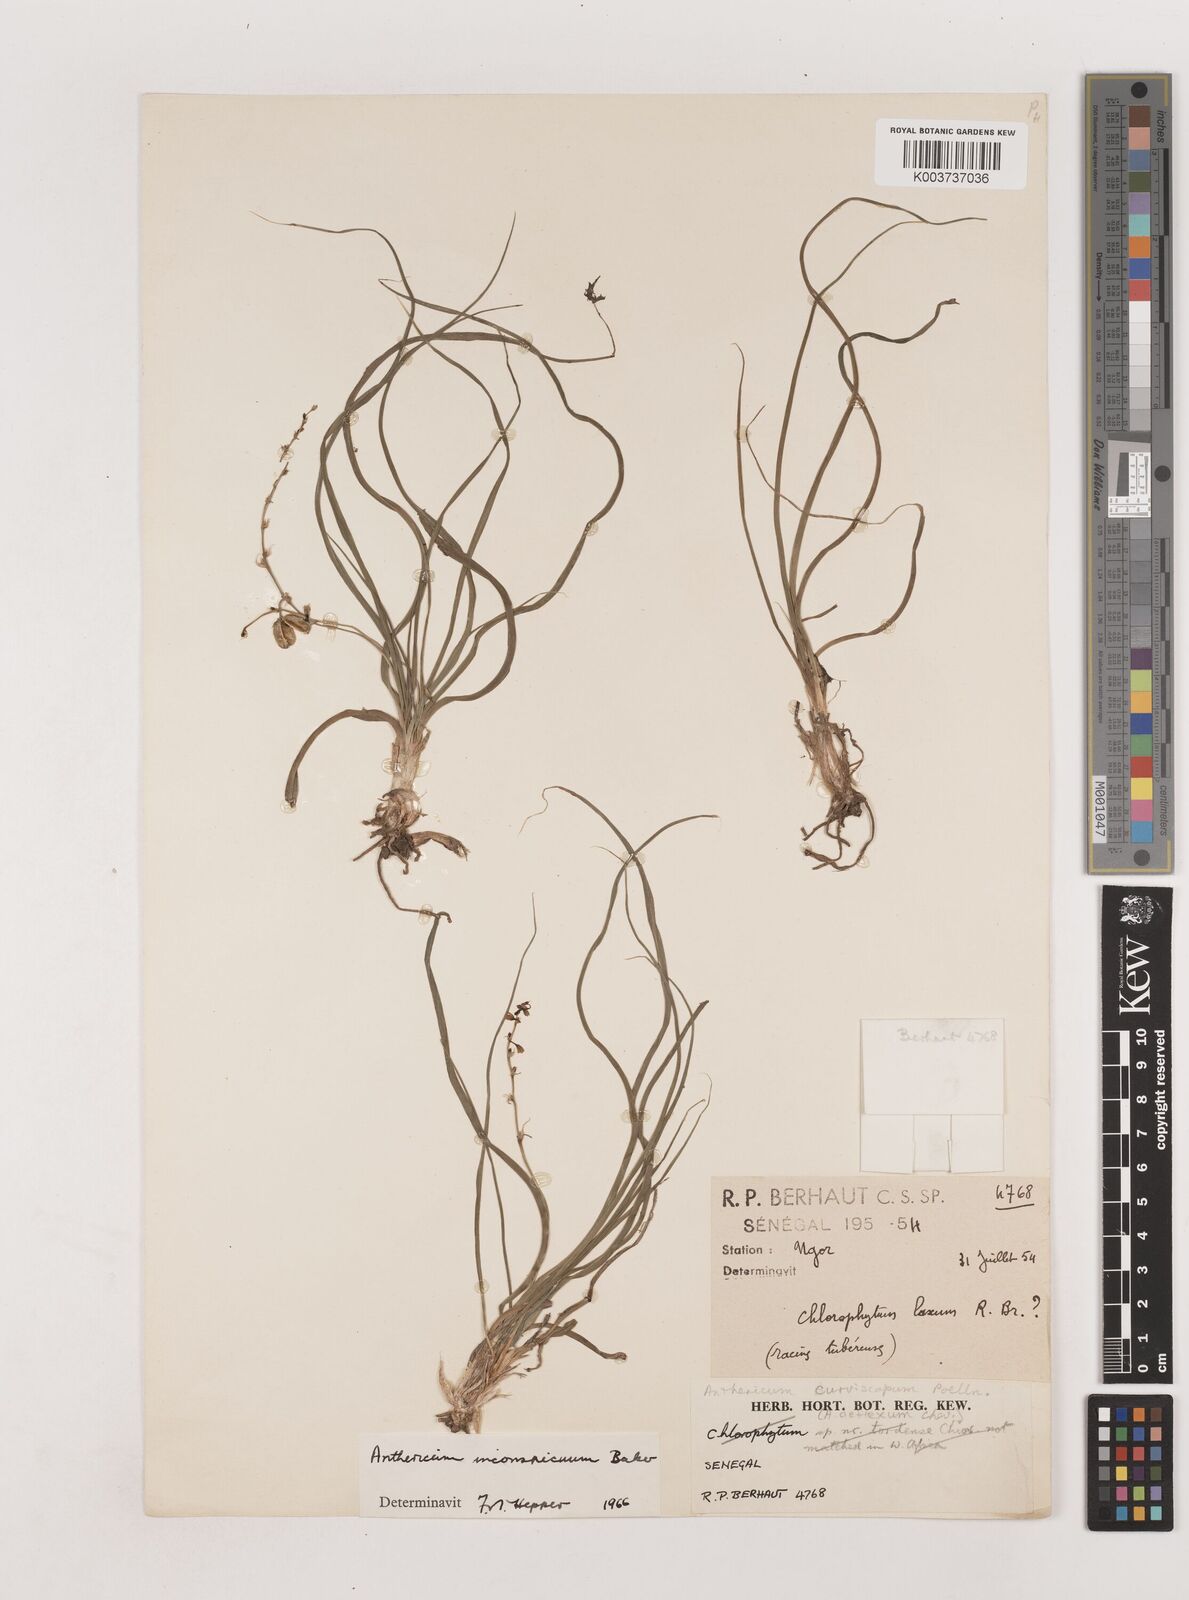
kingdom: Plantae
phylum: Tracheophyta
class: Liliopsida
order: Asparagales
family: Asparagaceae
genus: Chlorophytum
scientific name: Chlorophytum inconspicuum
